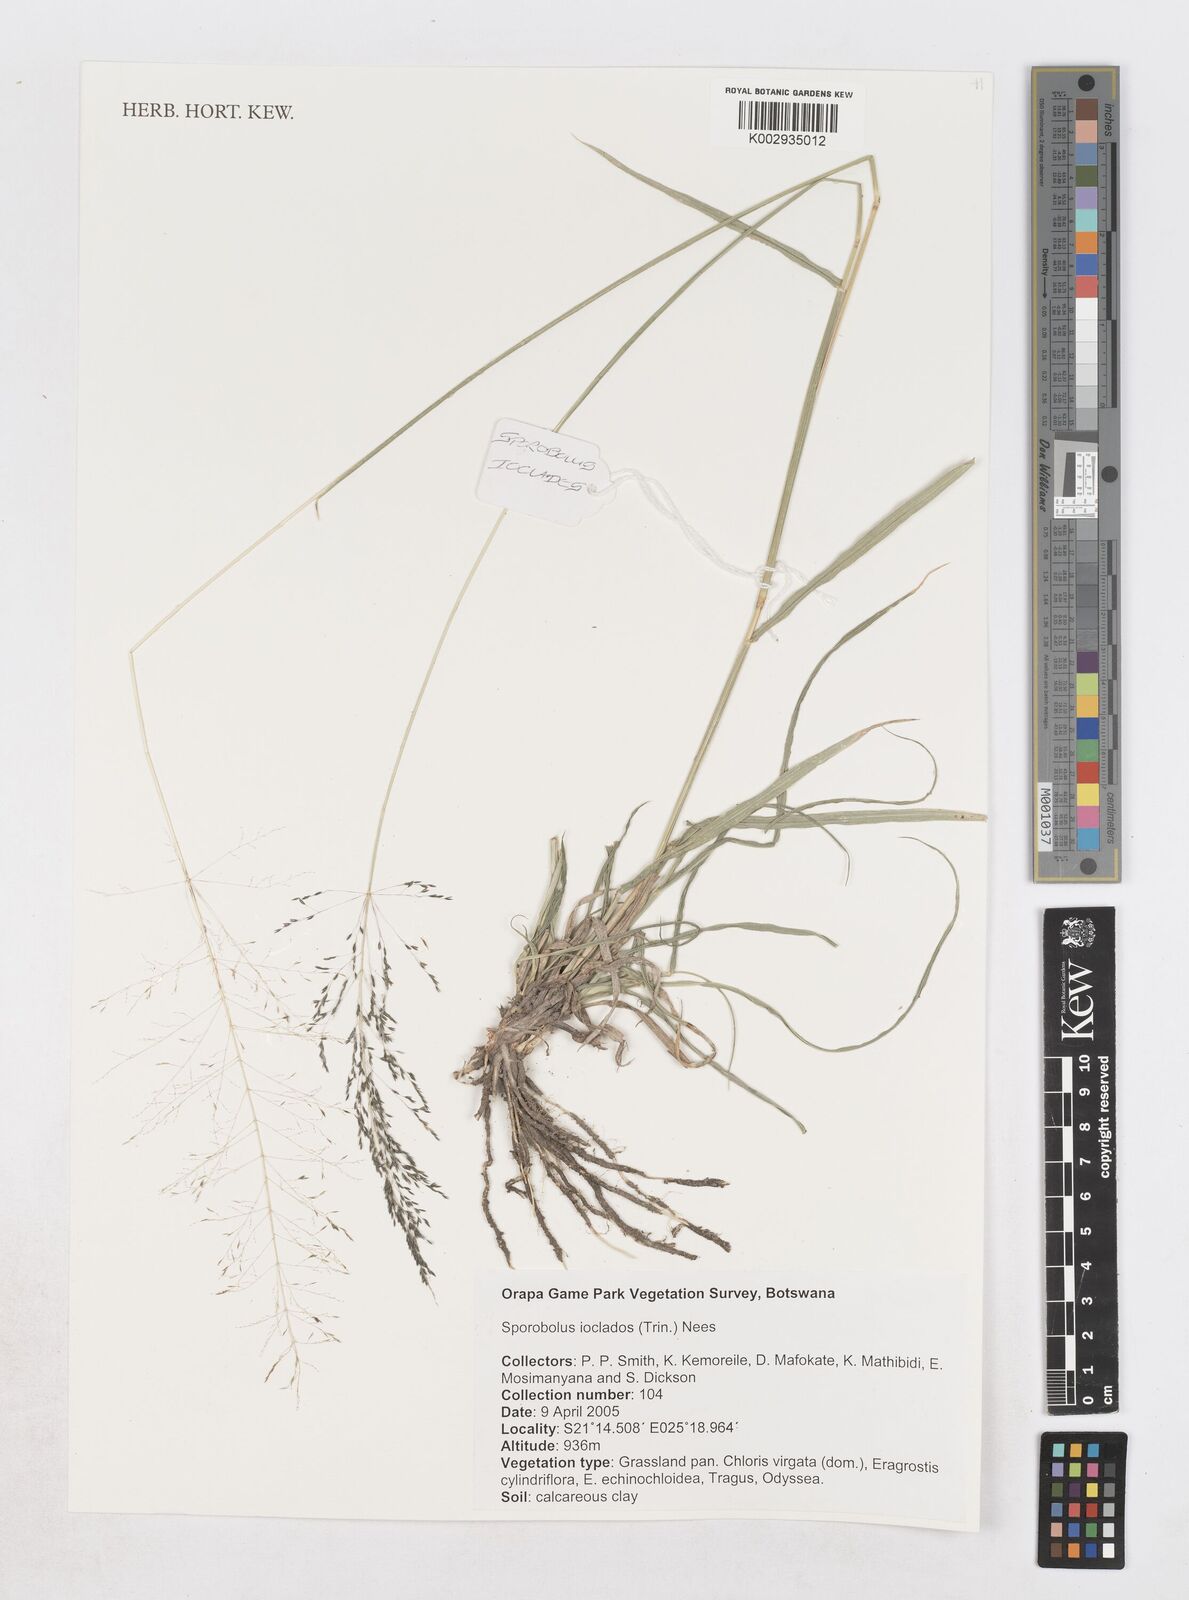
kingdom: Plantae
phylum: Tracheophyta
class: Liliopsida
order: Poales
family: Poaceae
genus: Sporobolus
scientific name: Sporobolus ioclados
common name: Pan dropseed
